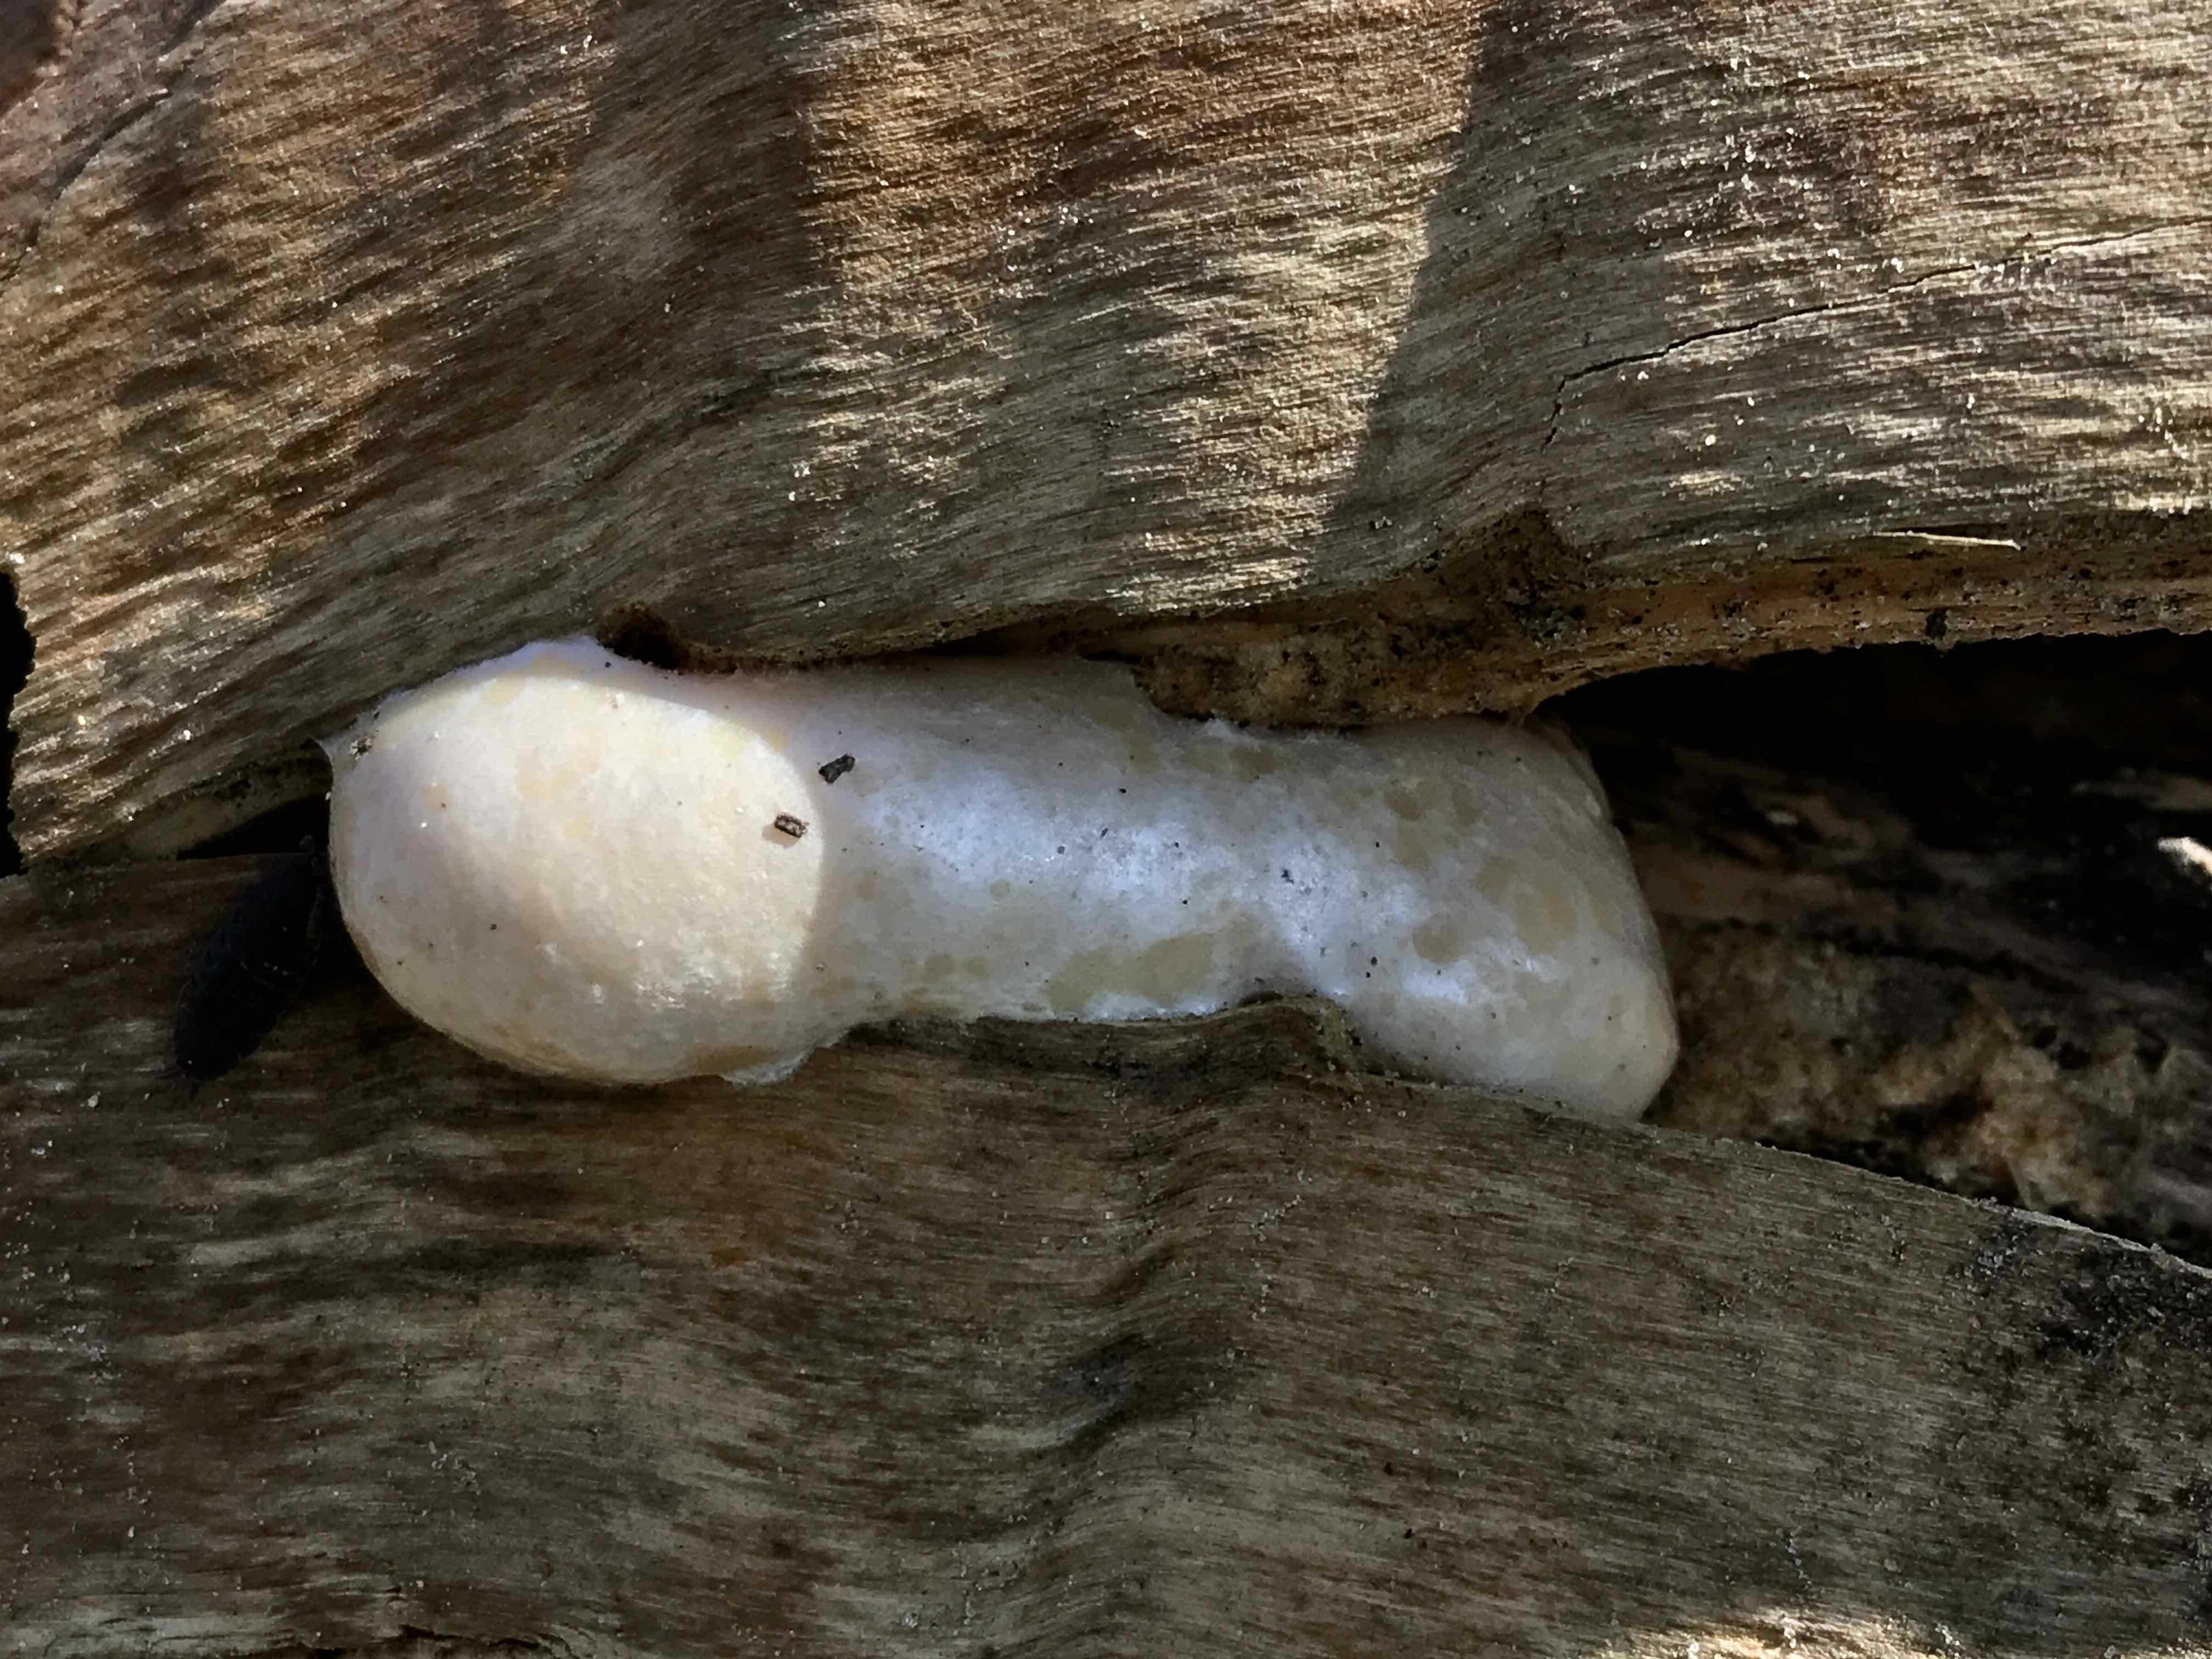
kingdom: Protozoa
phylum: Mycetozoa
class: Myxomycetes
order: Cribrariales
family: Tubiferaceae
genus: Reticularia
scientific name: Reticularia lycoperdon
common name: skinnende støvpude
